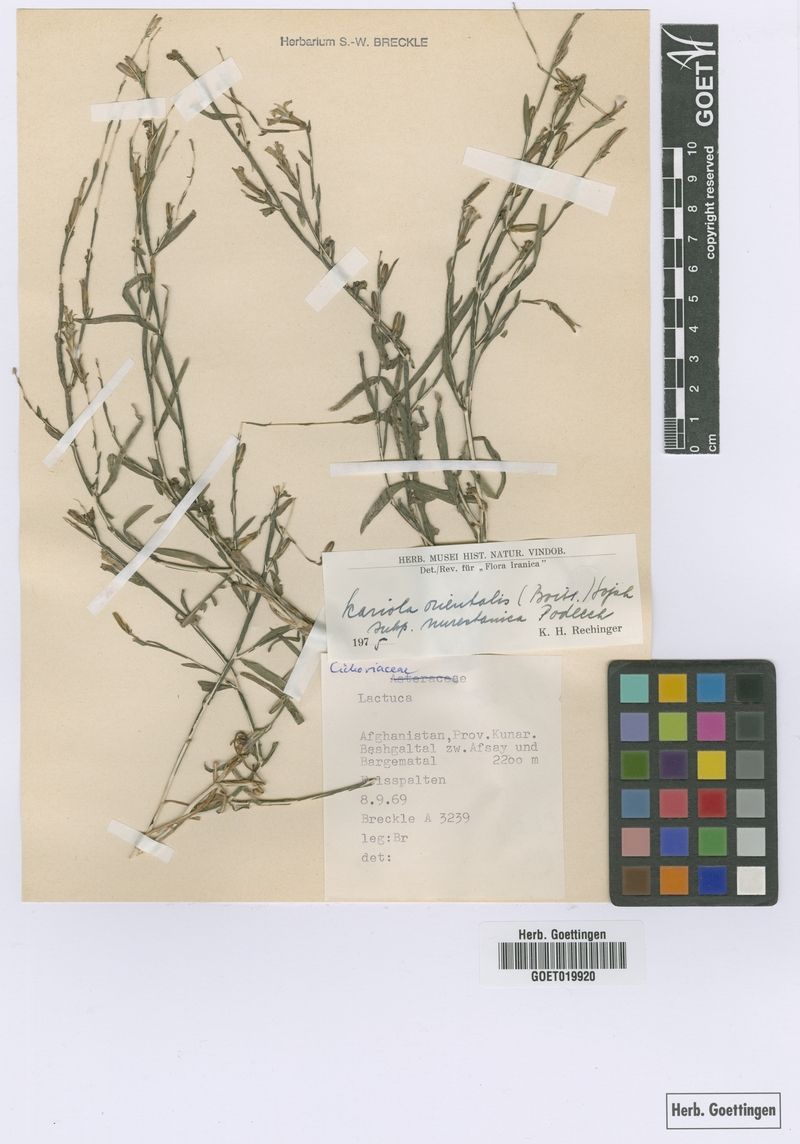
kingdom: Plantae
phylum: Tracheophyta
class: Magnoliopsida
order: Asterales
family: Asteraceae
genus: Lactuca
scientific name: Lactuca orientalis
